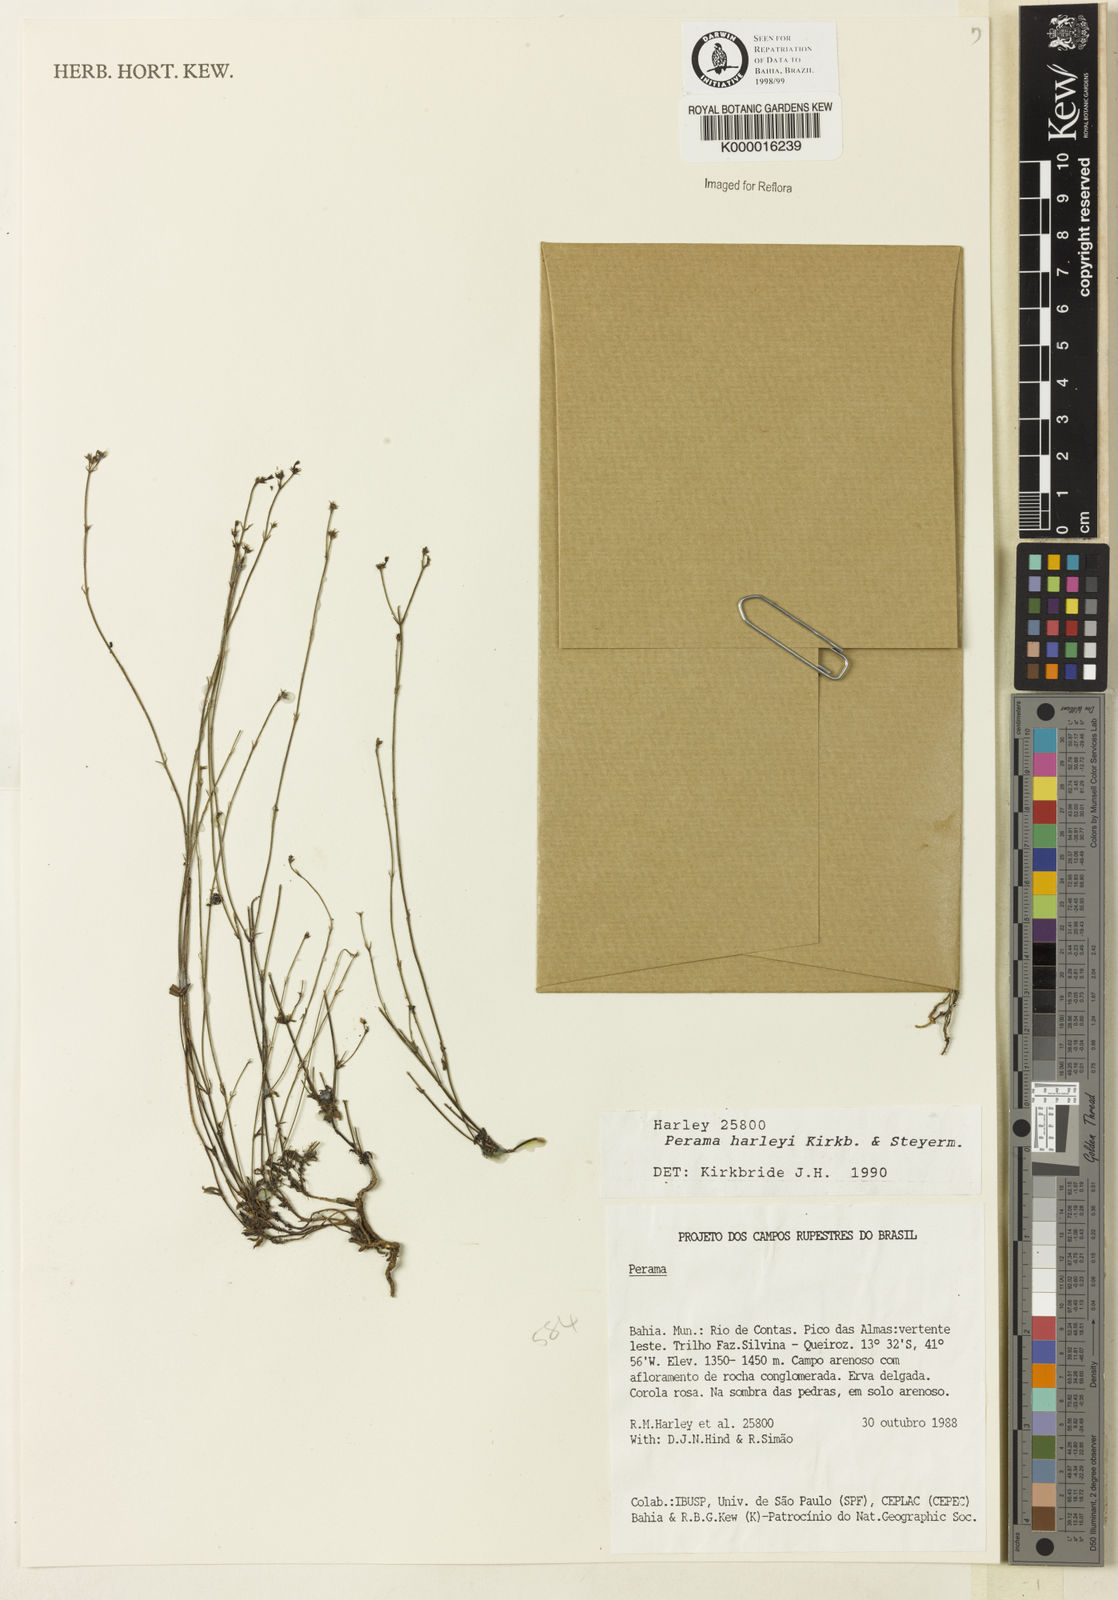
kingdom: Plantae
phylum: Tracheophyta
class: Magnoliopsida
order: Gentianales
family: Rubiaceae
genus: Perama
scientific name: Perama harleyi
